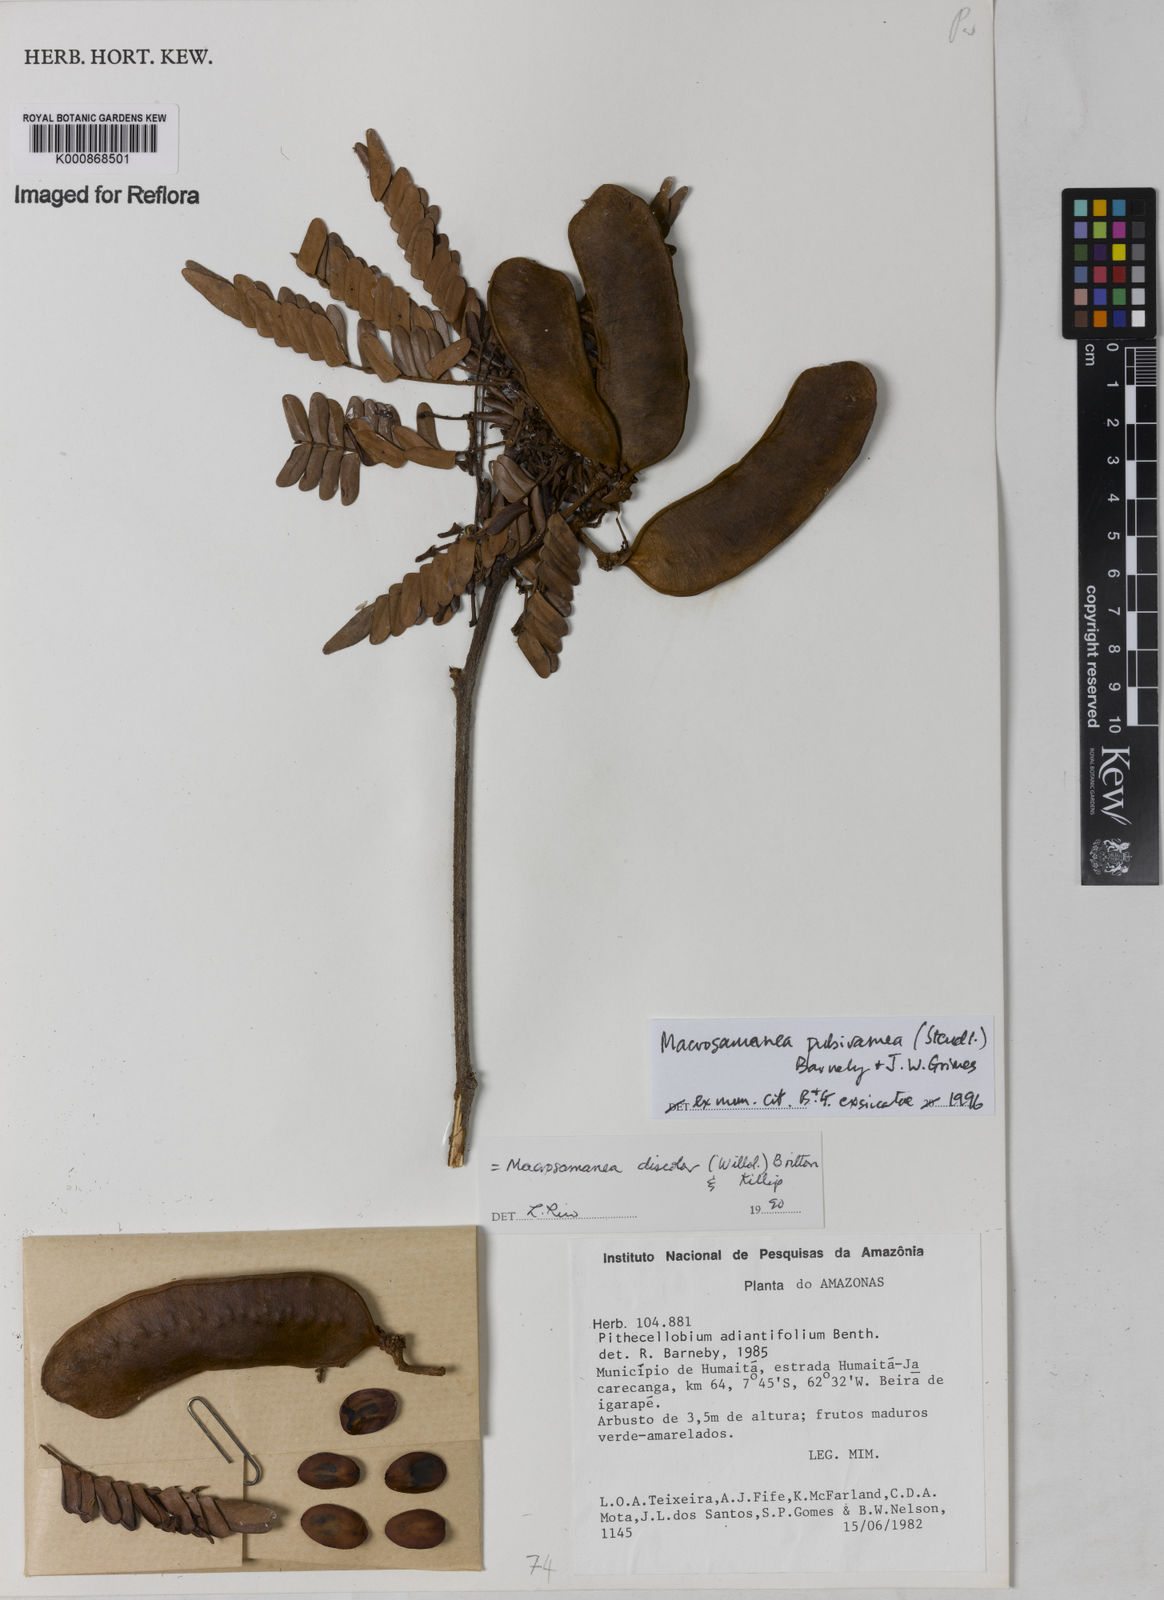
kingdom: Plantae
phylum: Tracheophyta
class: Magnoliopsida
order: Fabales
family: Fabaceae
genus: Macrosamanea
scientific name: Macrosamanea pubiramea
